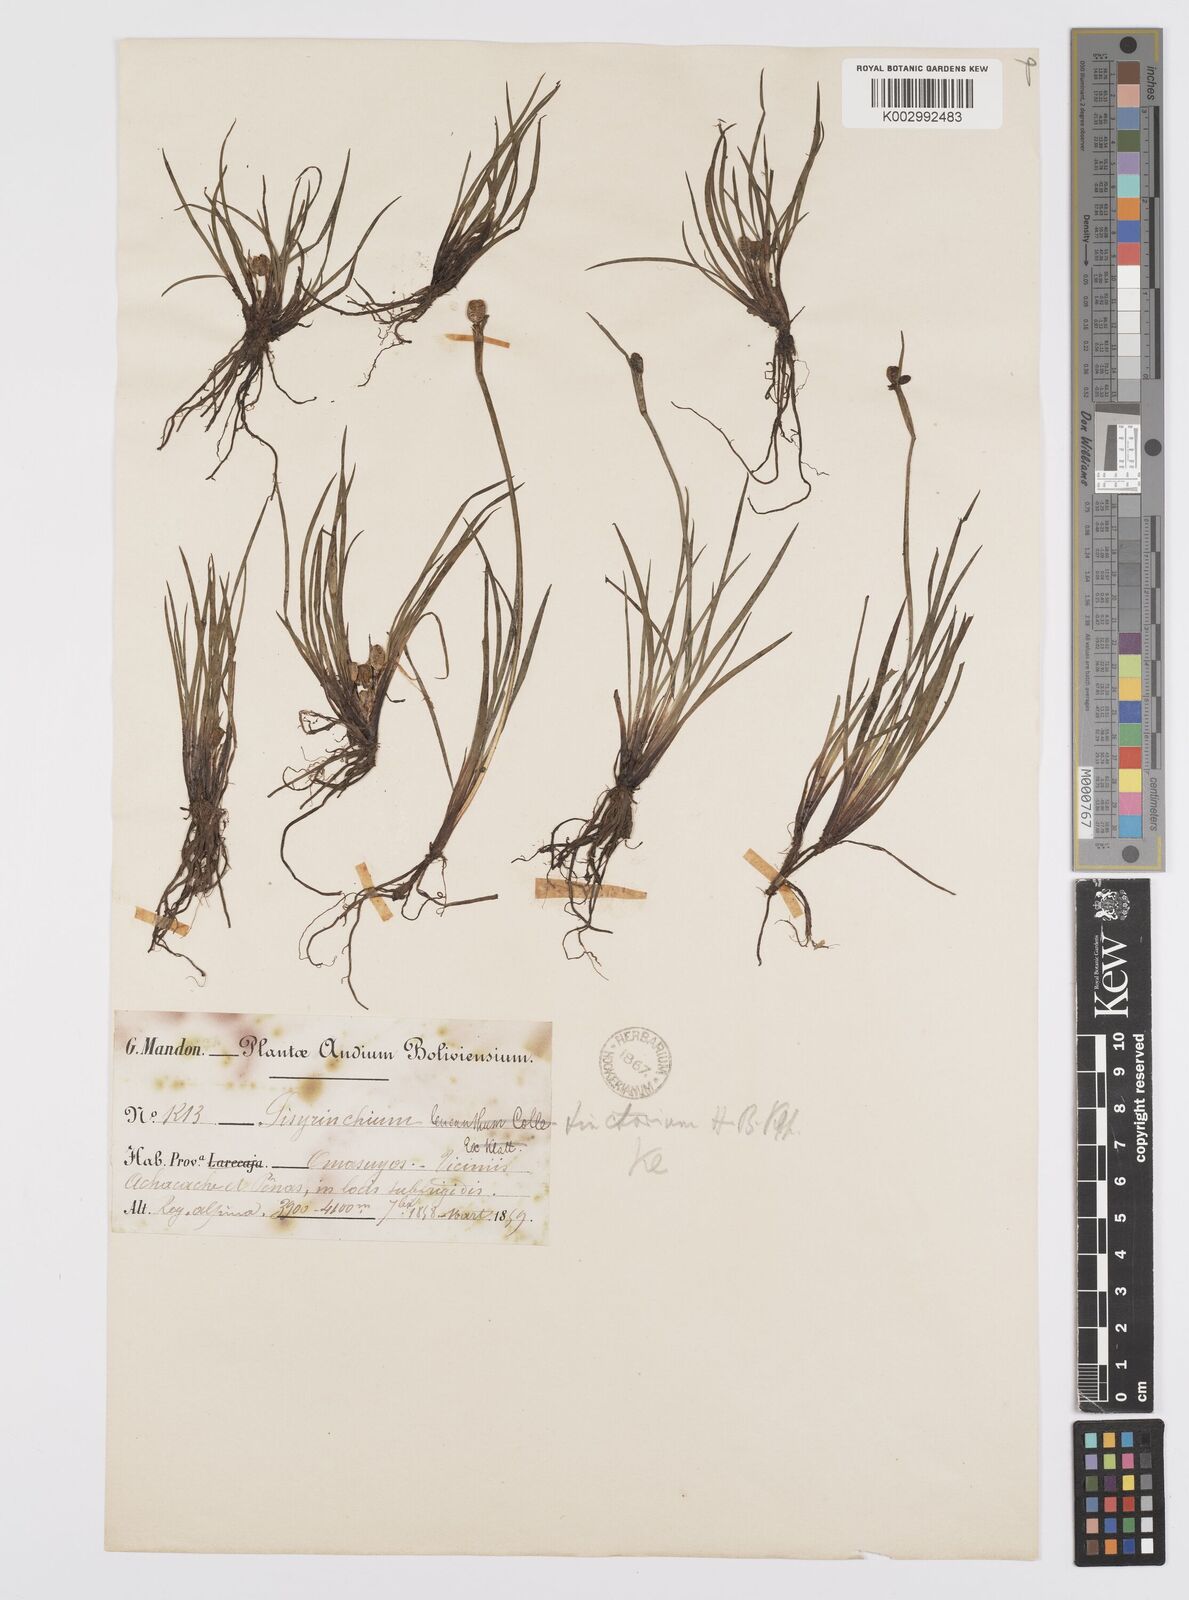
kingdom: Plantae
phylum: Tracheophyta
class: Liliopsida
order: Asparagales
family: Iridaceae
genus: Sisyrinchium
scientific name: Sisyrinchium tinctorium
